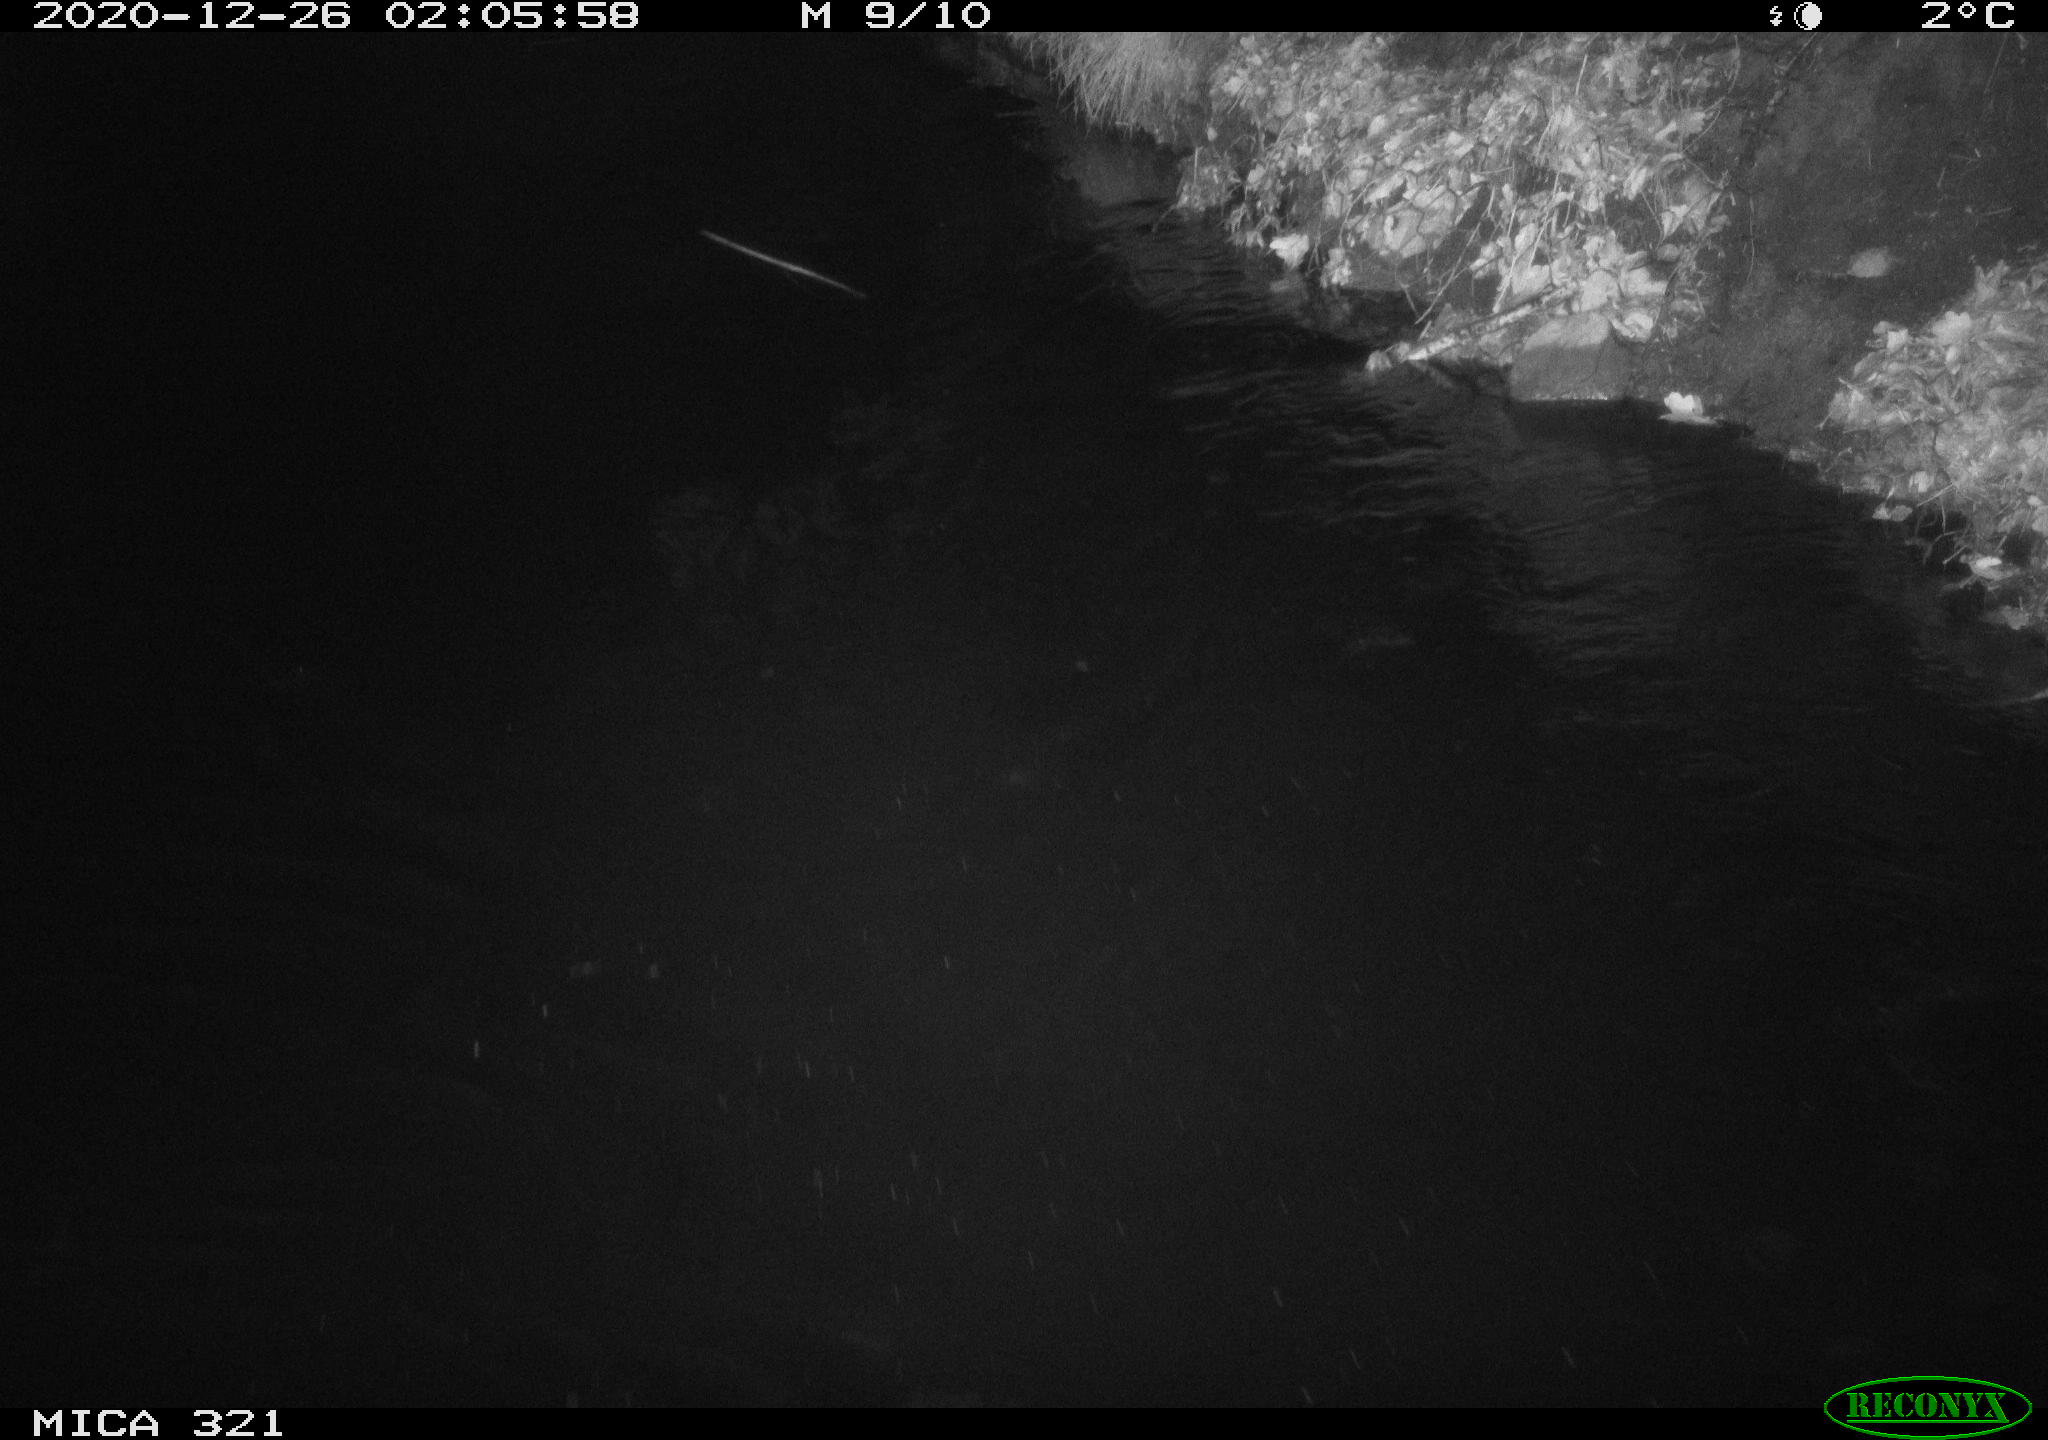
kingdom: Animalia
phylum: Chordata
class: Aves
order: Anseriformes
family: Anatidae
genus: Anas
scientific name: Anas platyrhynchos
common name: Mallard
